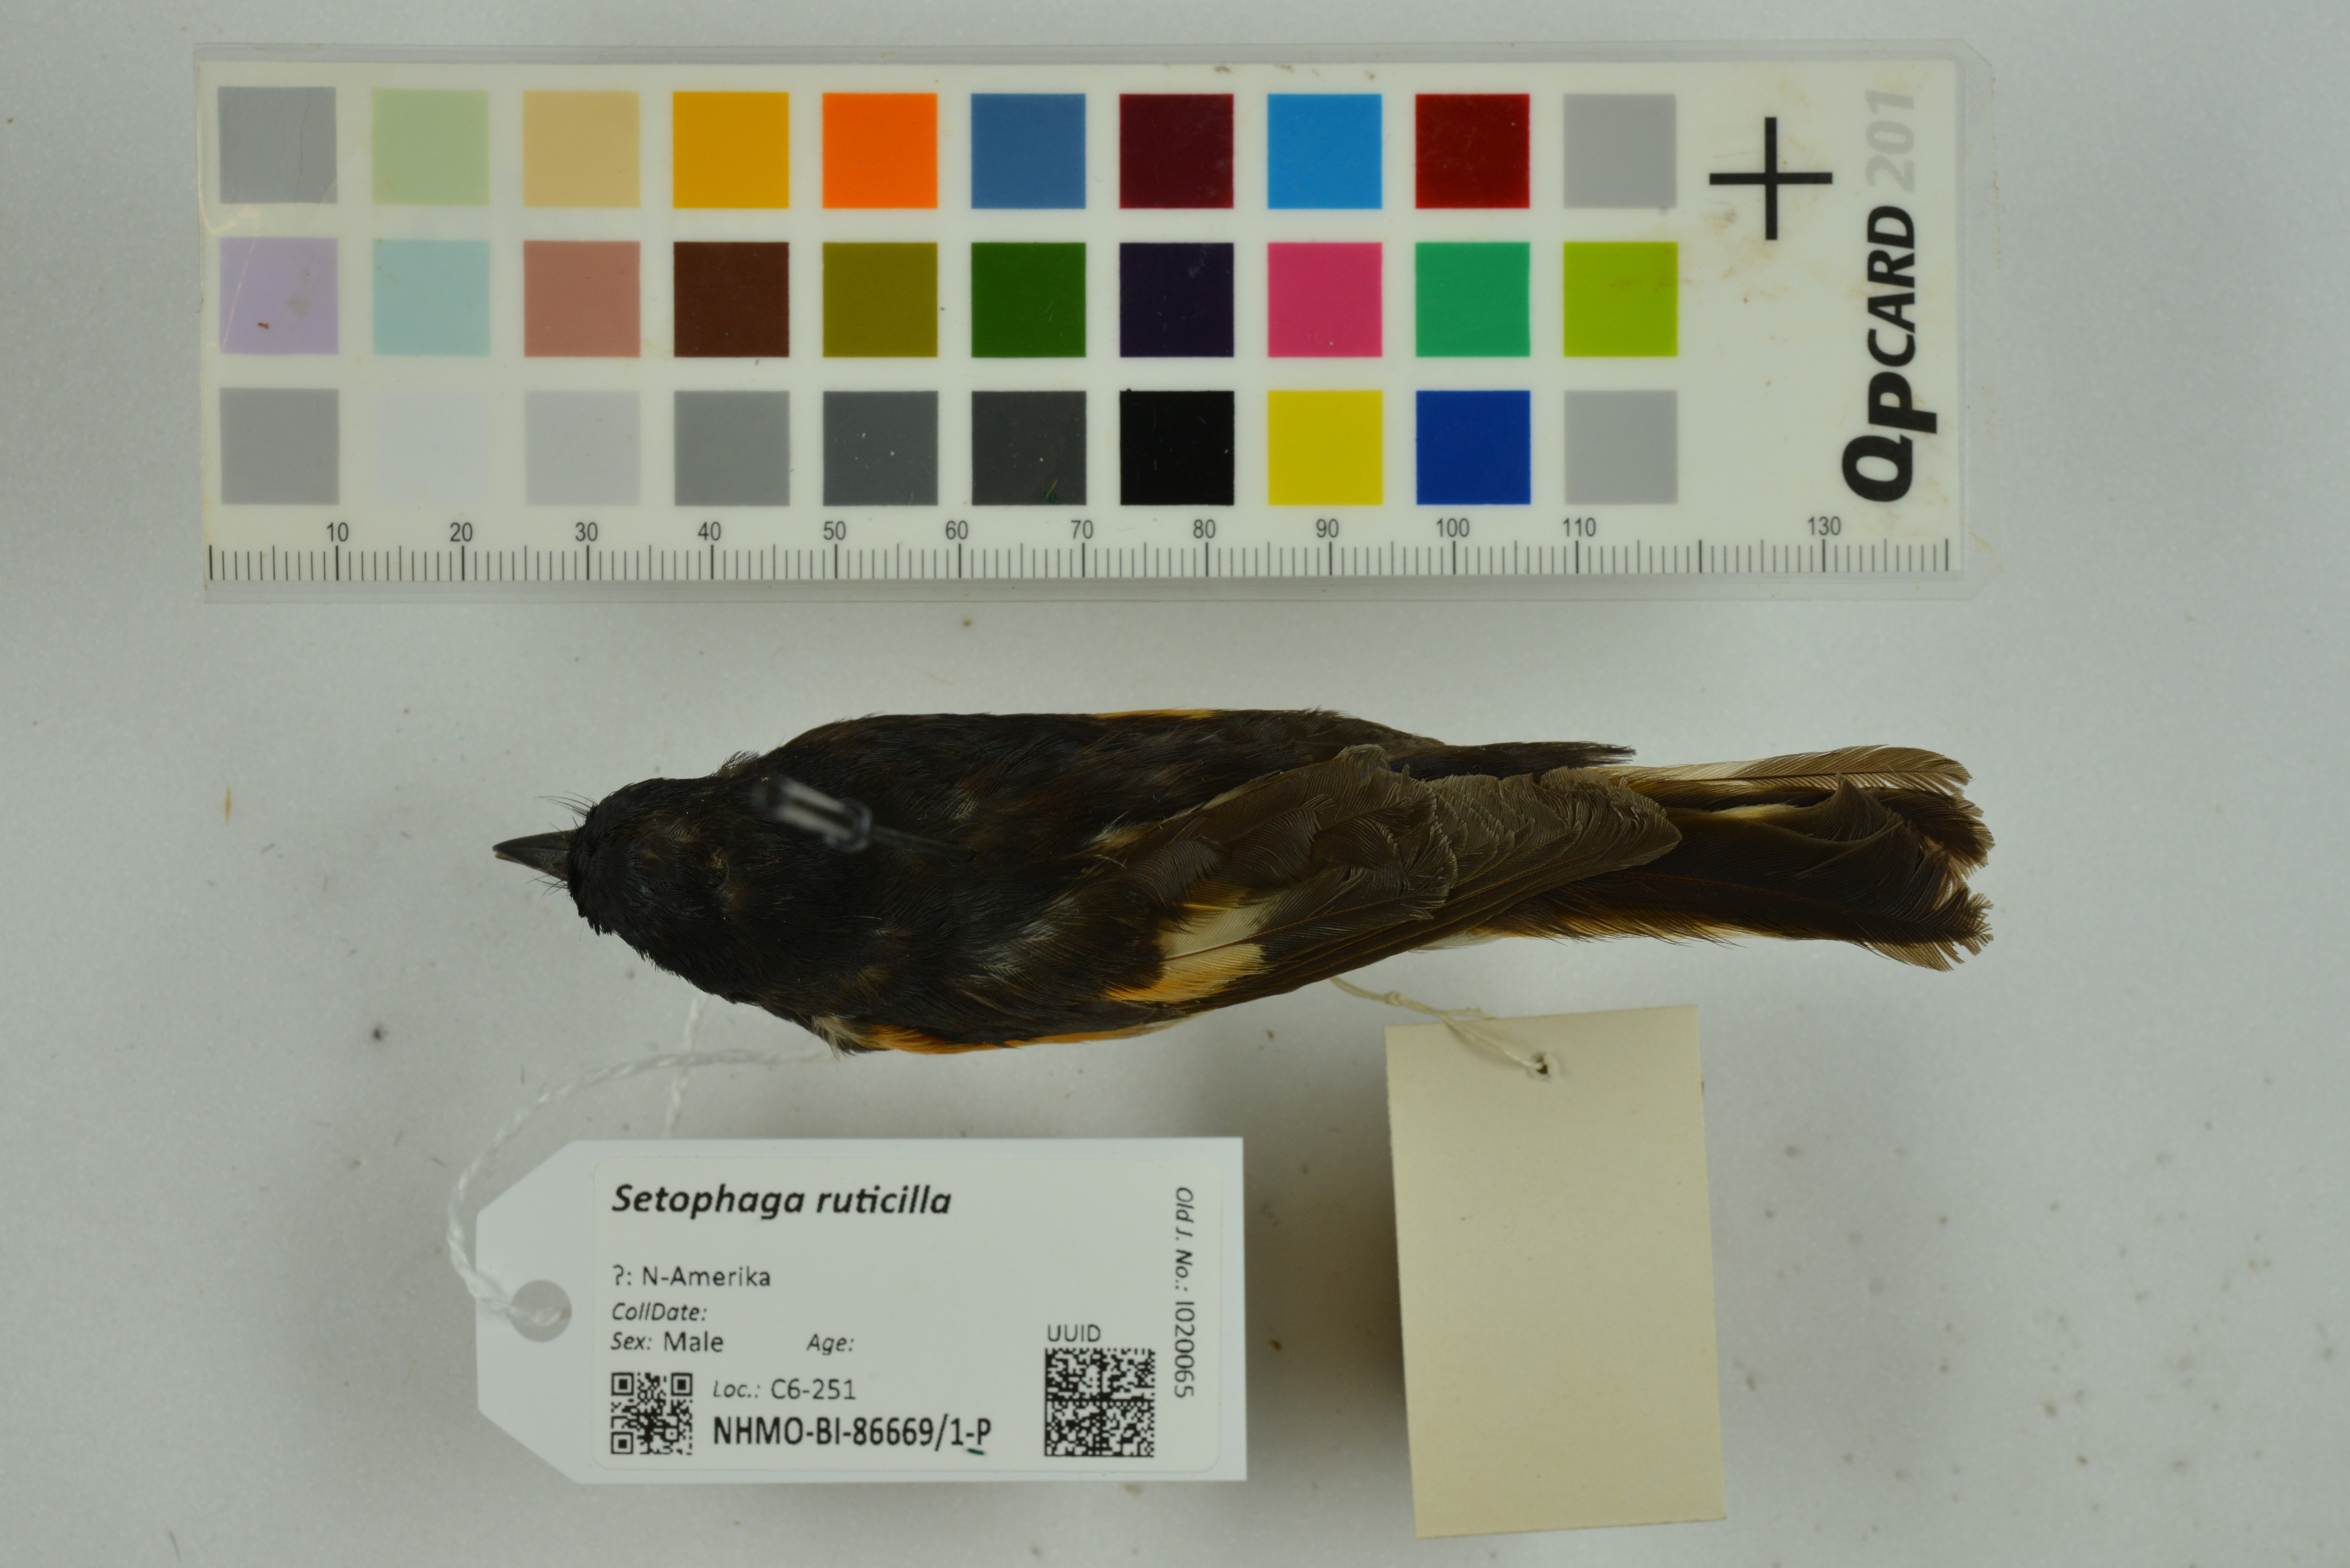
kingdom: Animalia
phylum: Chordata
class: Aves
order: Passeriformes
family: Parulidae
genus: Setophaga
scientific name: Setophaga ruticilla
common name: American redstart
